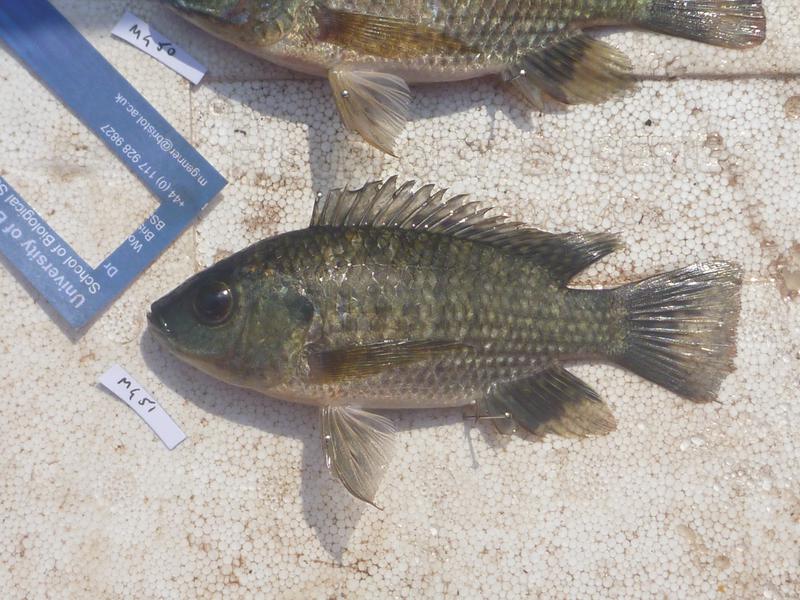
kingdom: Animalia
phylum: Chordata
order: Perciformes
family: Cichlidae
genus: Oreochromis
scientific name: Oreochromis leucostictus
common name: Blue spotted tilapia
